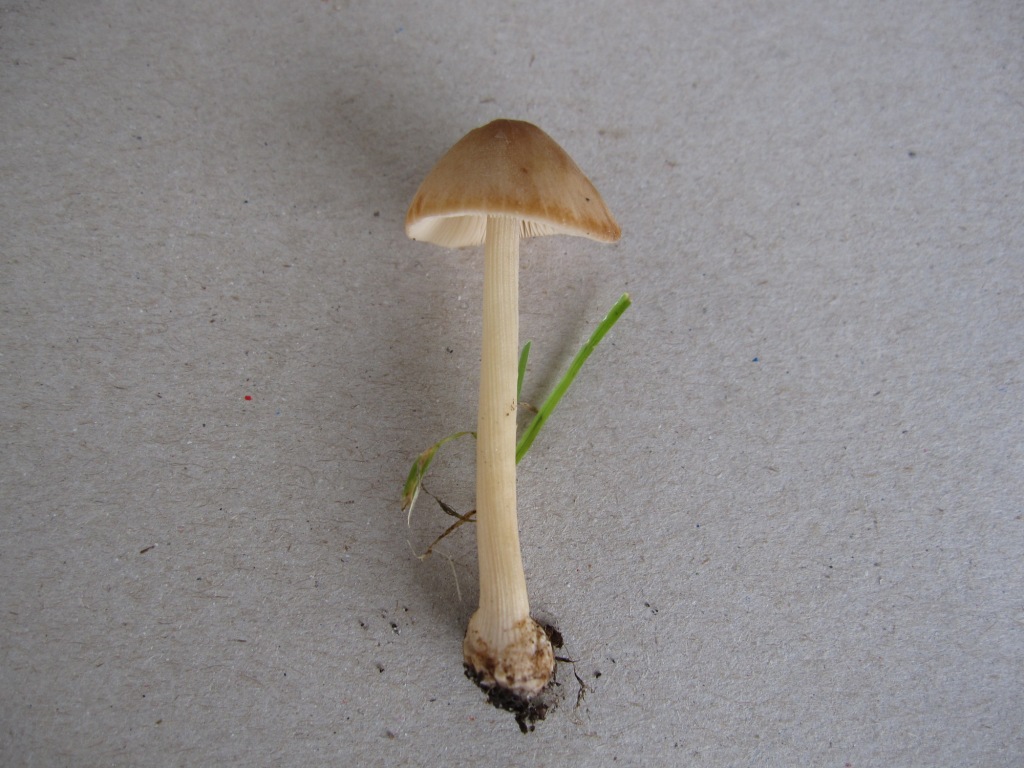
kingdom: Fungi
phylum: Basidiomycota
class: Agaricomycetes
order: Agaricales
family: Bolbitiaceae
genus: Conocybe
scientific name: Conocybe inocybeoides
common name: knold-keglehat
